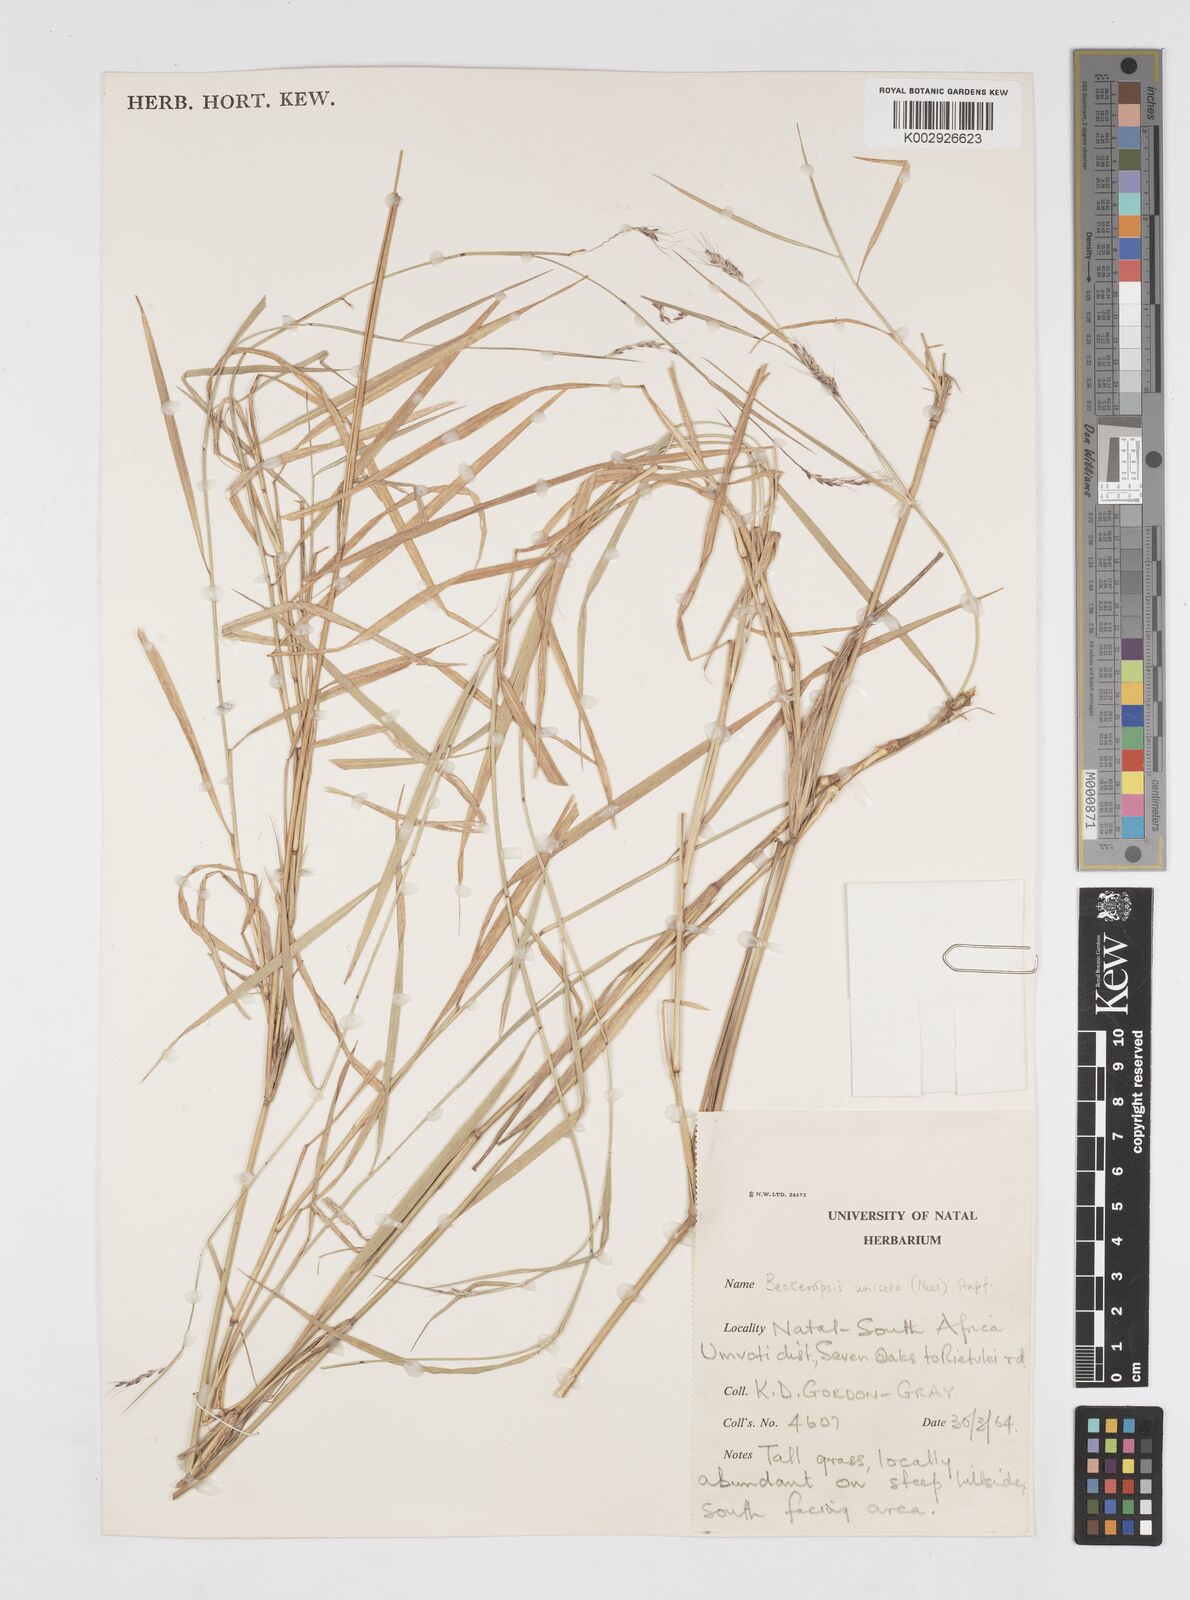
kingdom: Plantae
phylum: Tracheophyta
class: Liliopsida
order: Poales
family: Poaceae
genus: Cenchrus
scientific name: Cenchrus unisetus
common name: Natal grass
